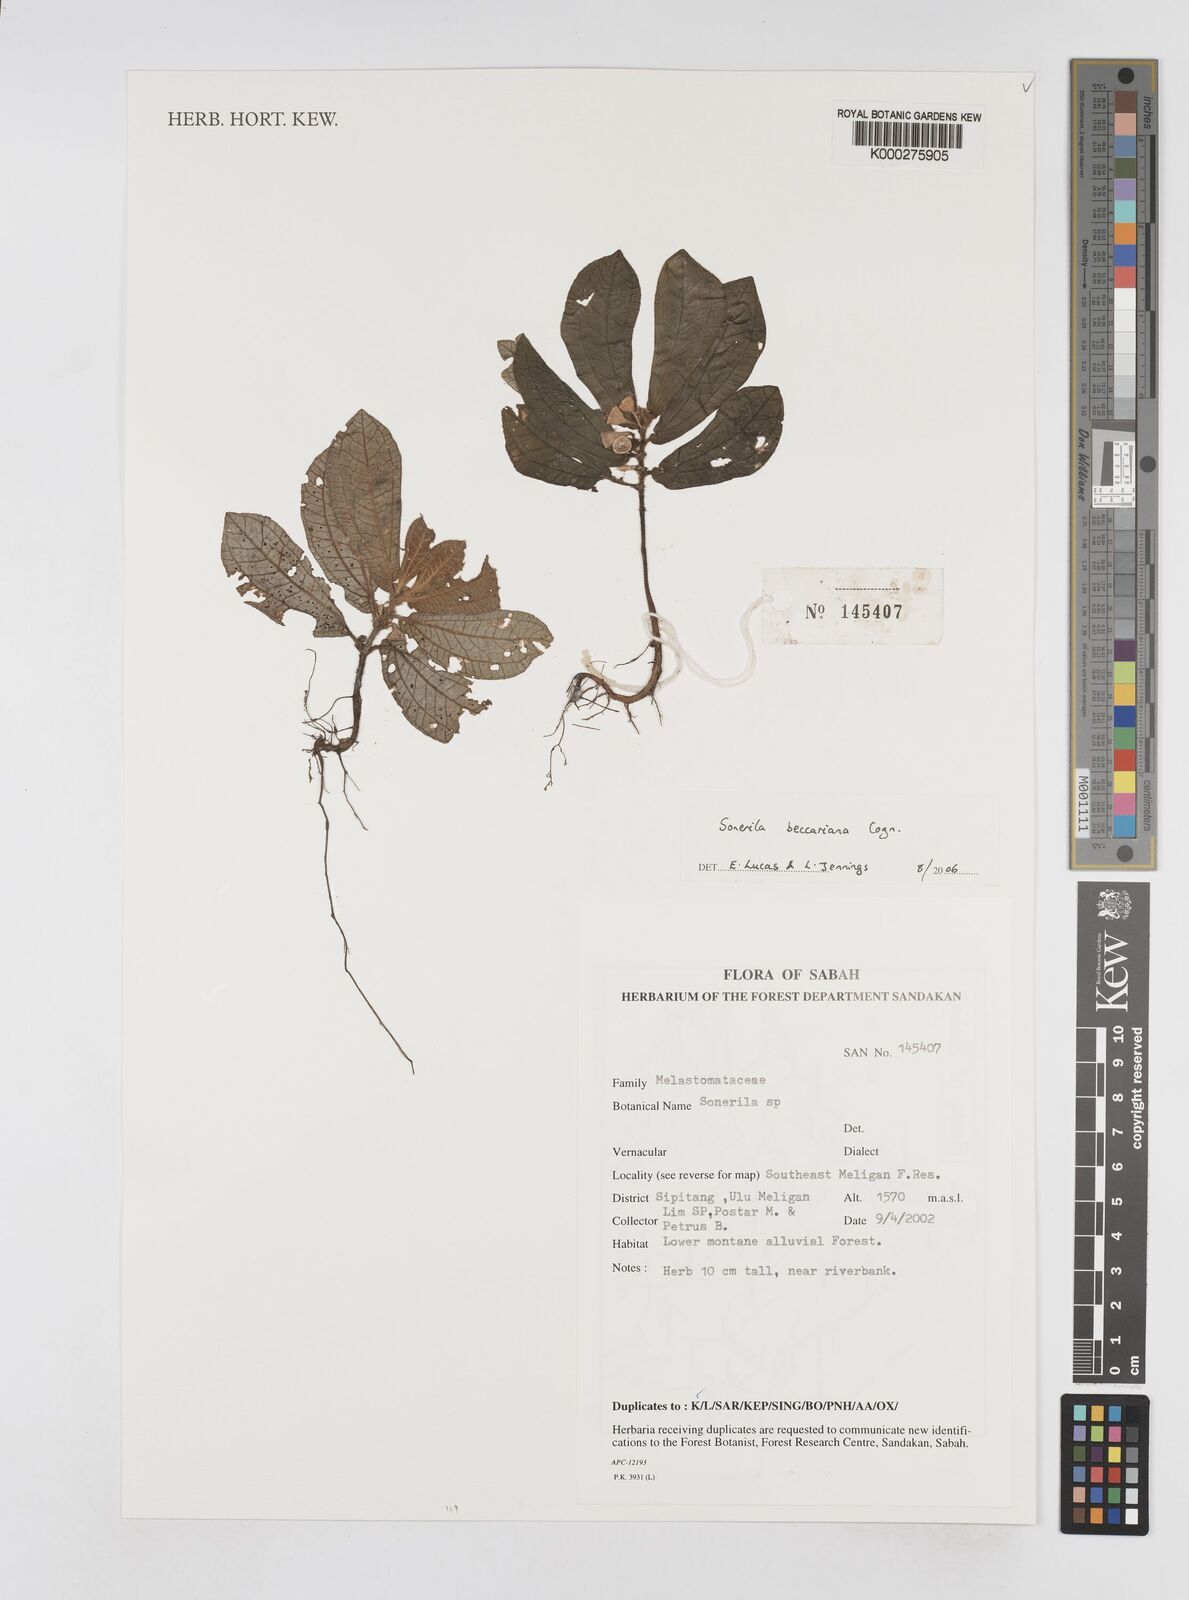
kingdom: Plantae
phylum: Tracheophyta
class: Magnoliopsida
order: Myrtales
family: Melastomataceae
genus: Sonerila
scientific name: Sonerila beccariana
